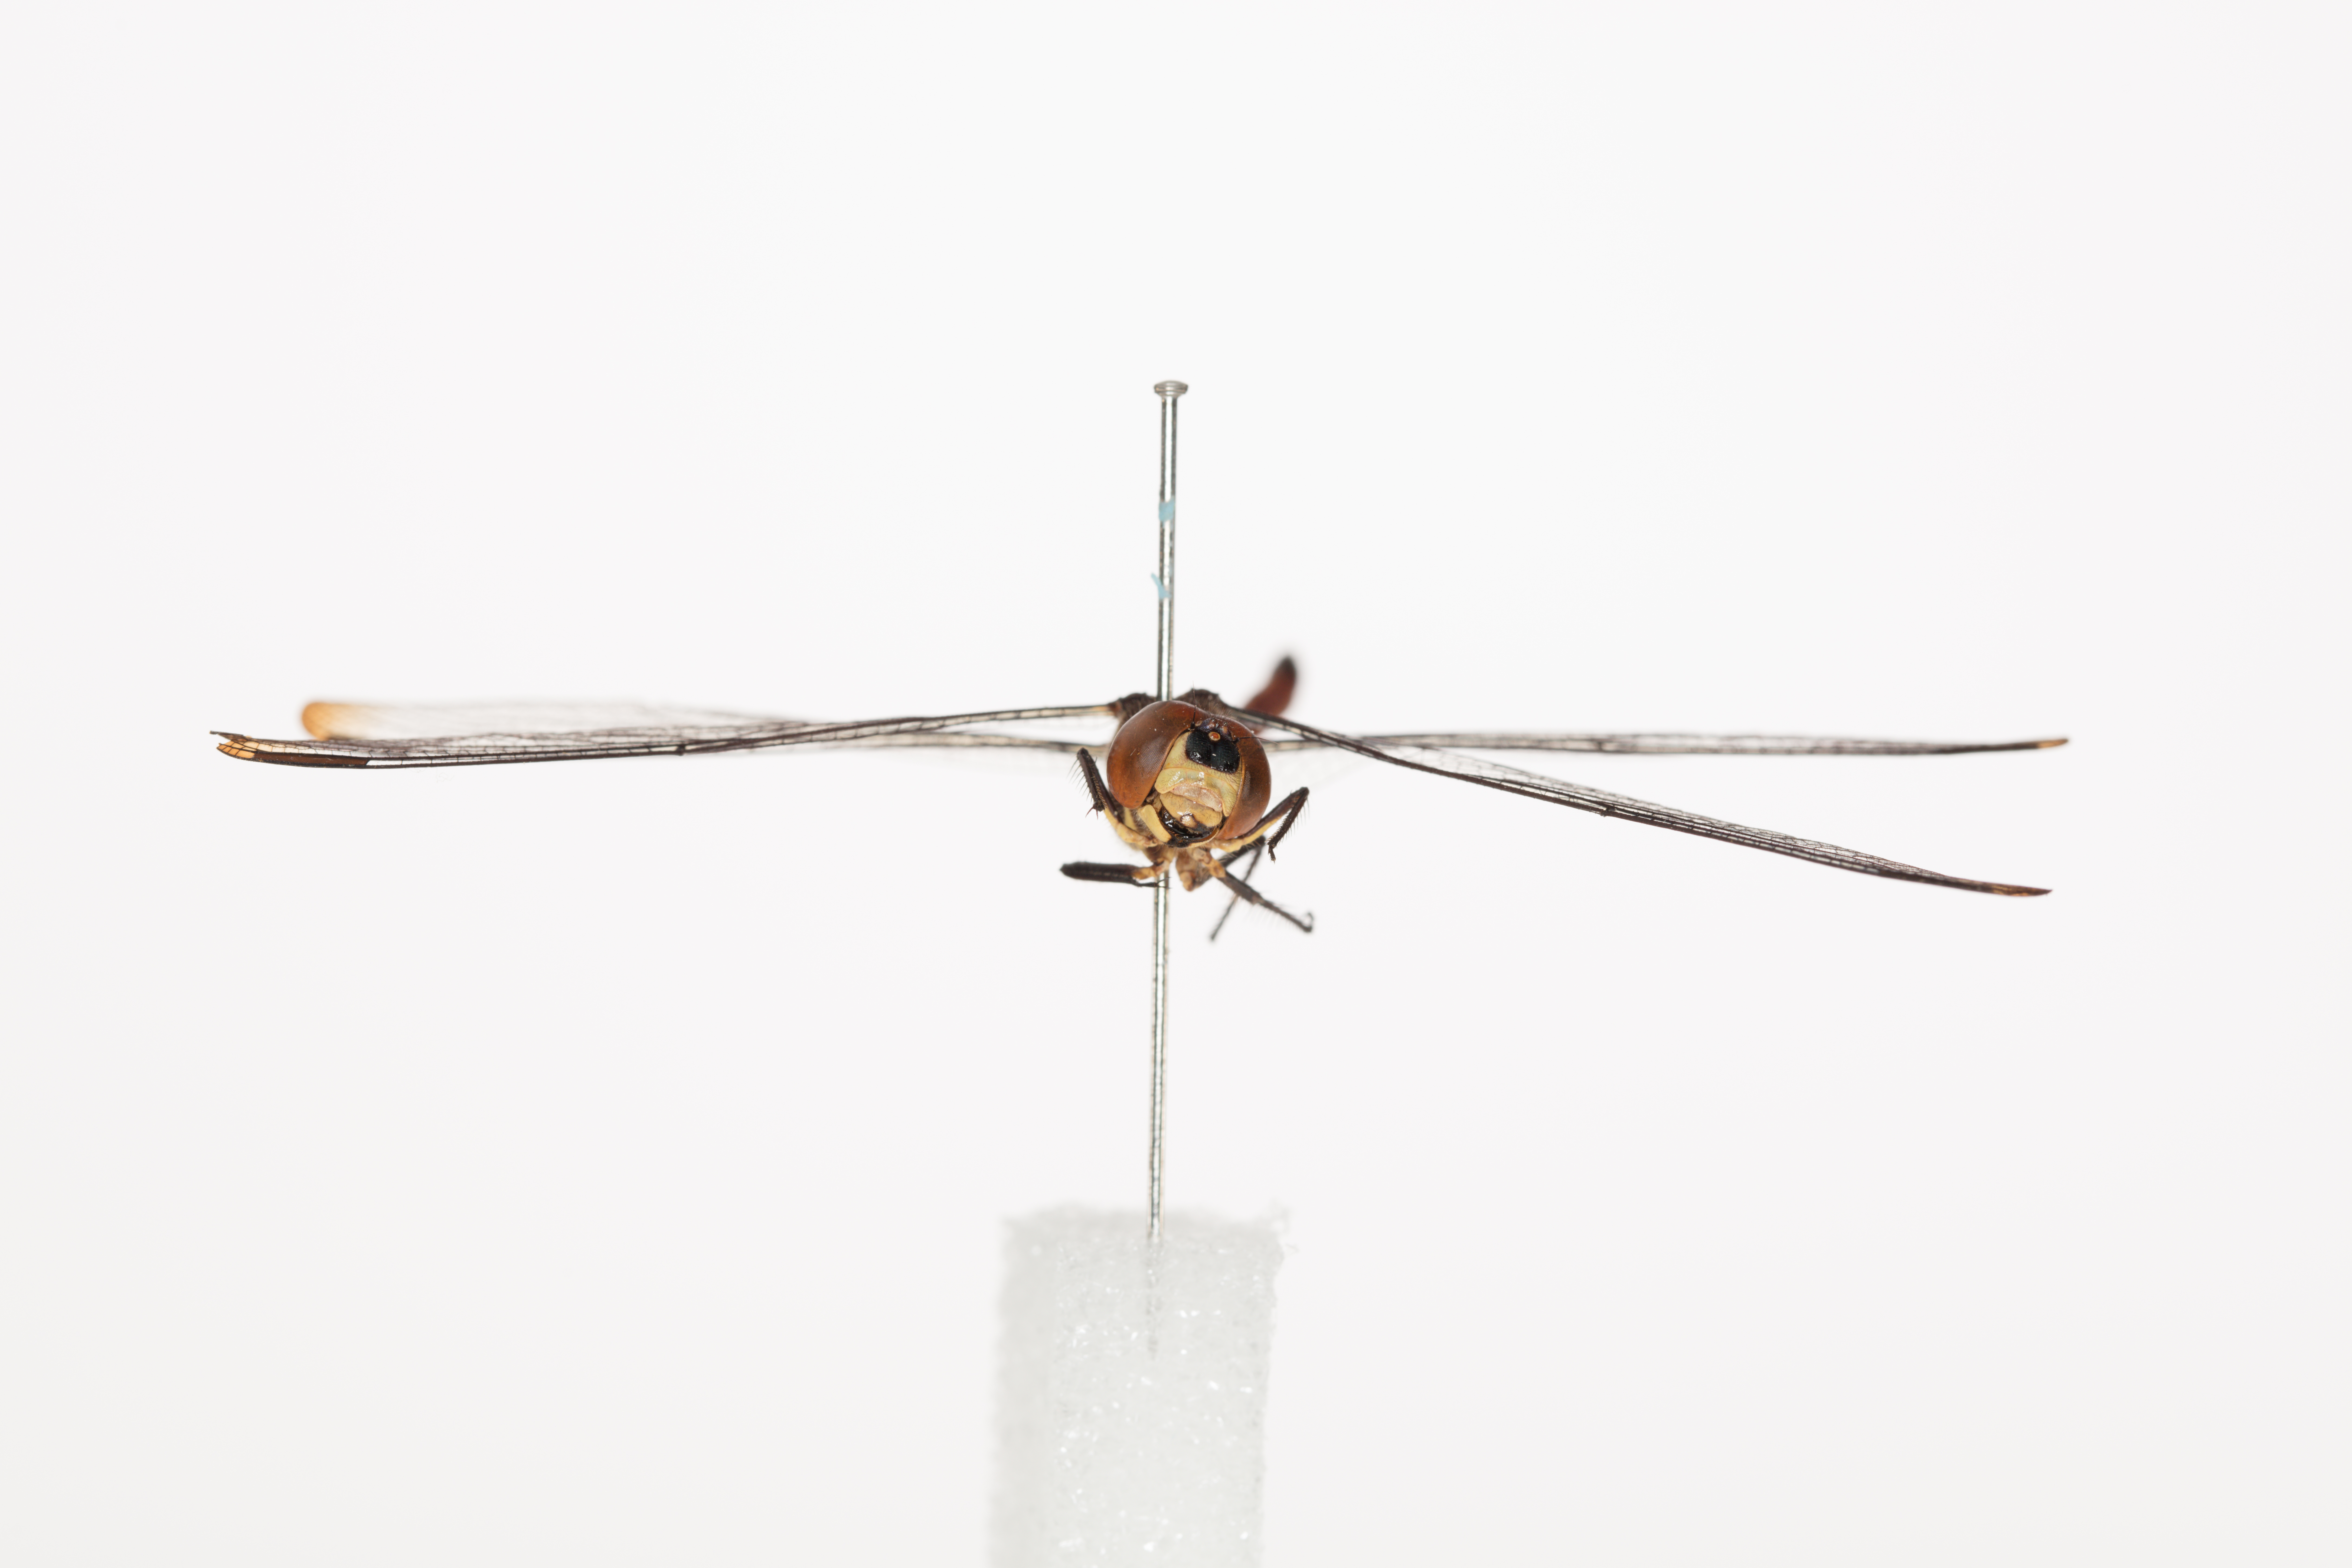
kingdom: Animalia
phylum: Arthropoda
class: Insecta
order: Odonata
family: Libellulidae
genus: Lathrecista
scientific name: Lathrecista asiatica
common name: Scarlet grenadier
